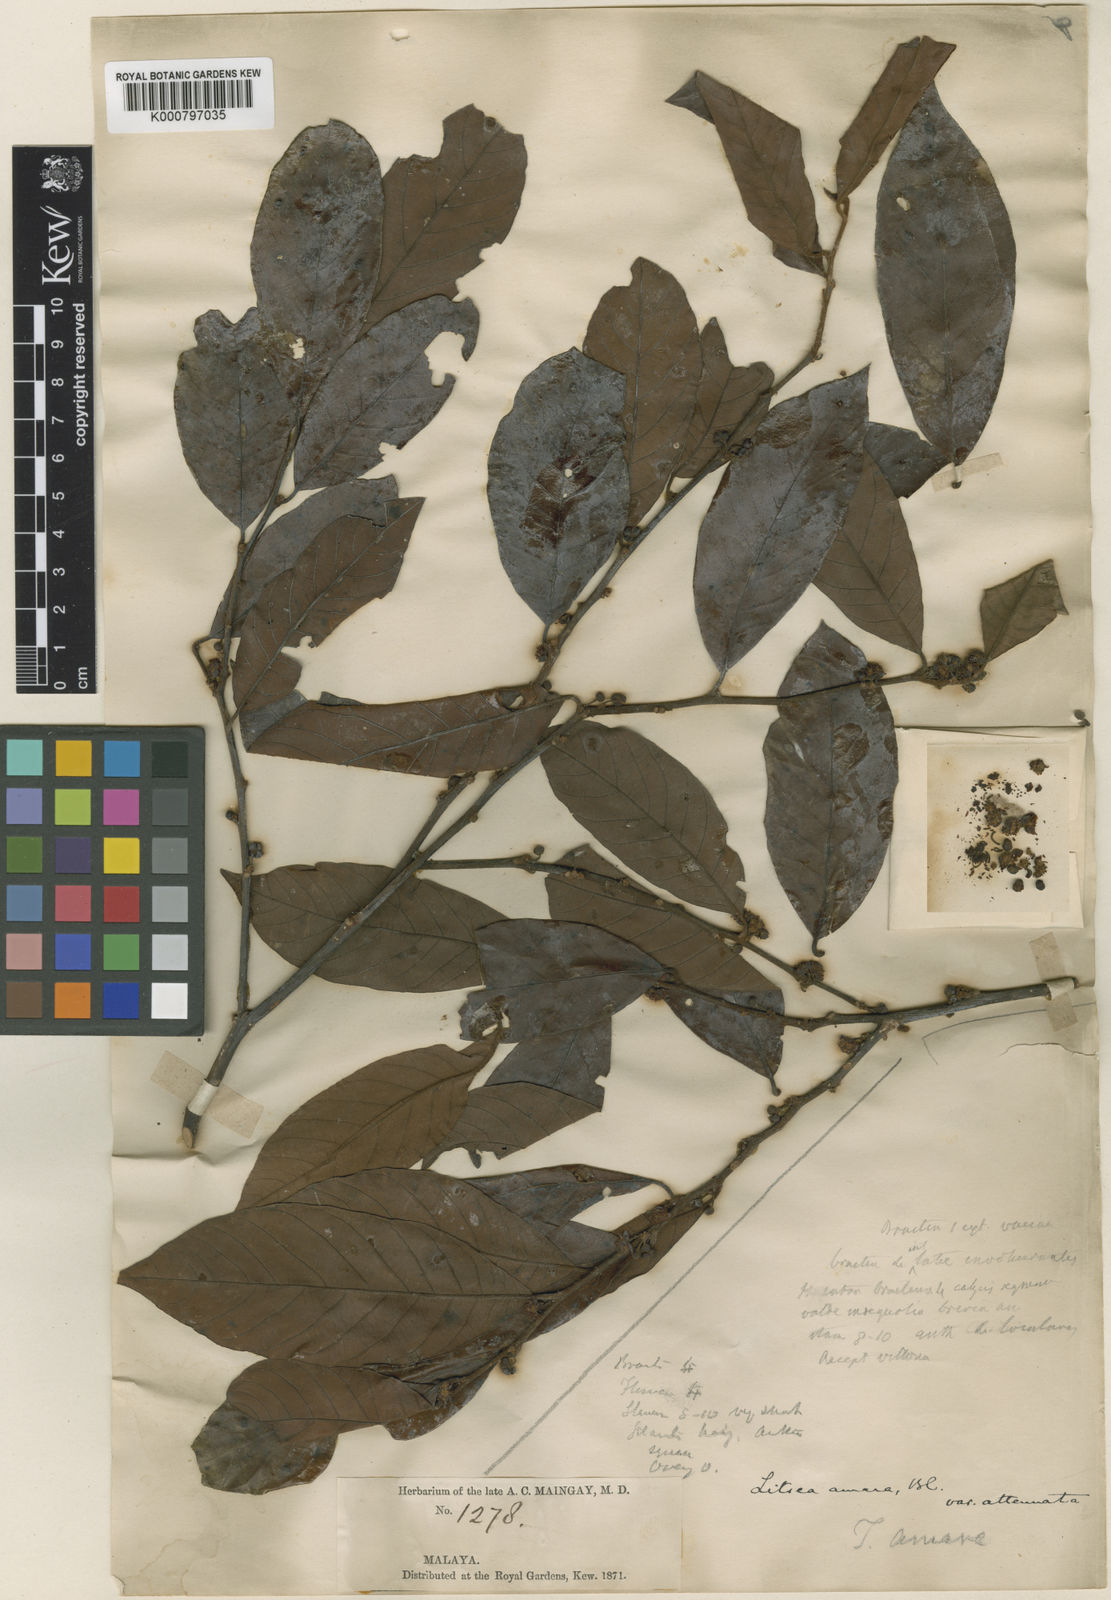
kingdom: Plantae
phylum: Tracheophyta
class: Magnoliopsida
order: Laurales
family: Lauraceae
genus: Litsea
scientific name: Litsea umbellata
